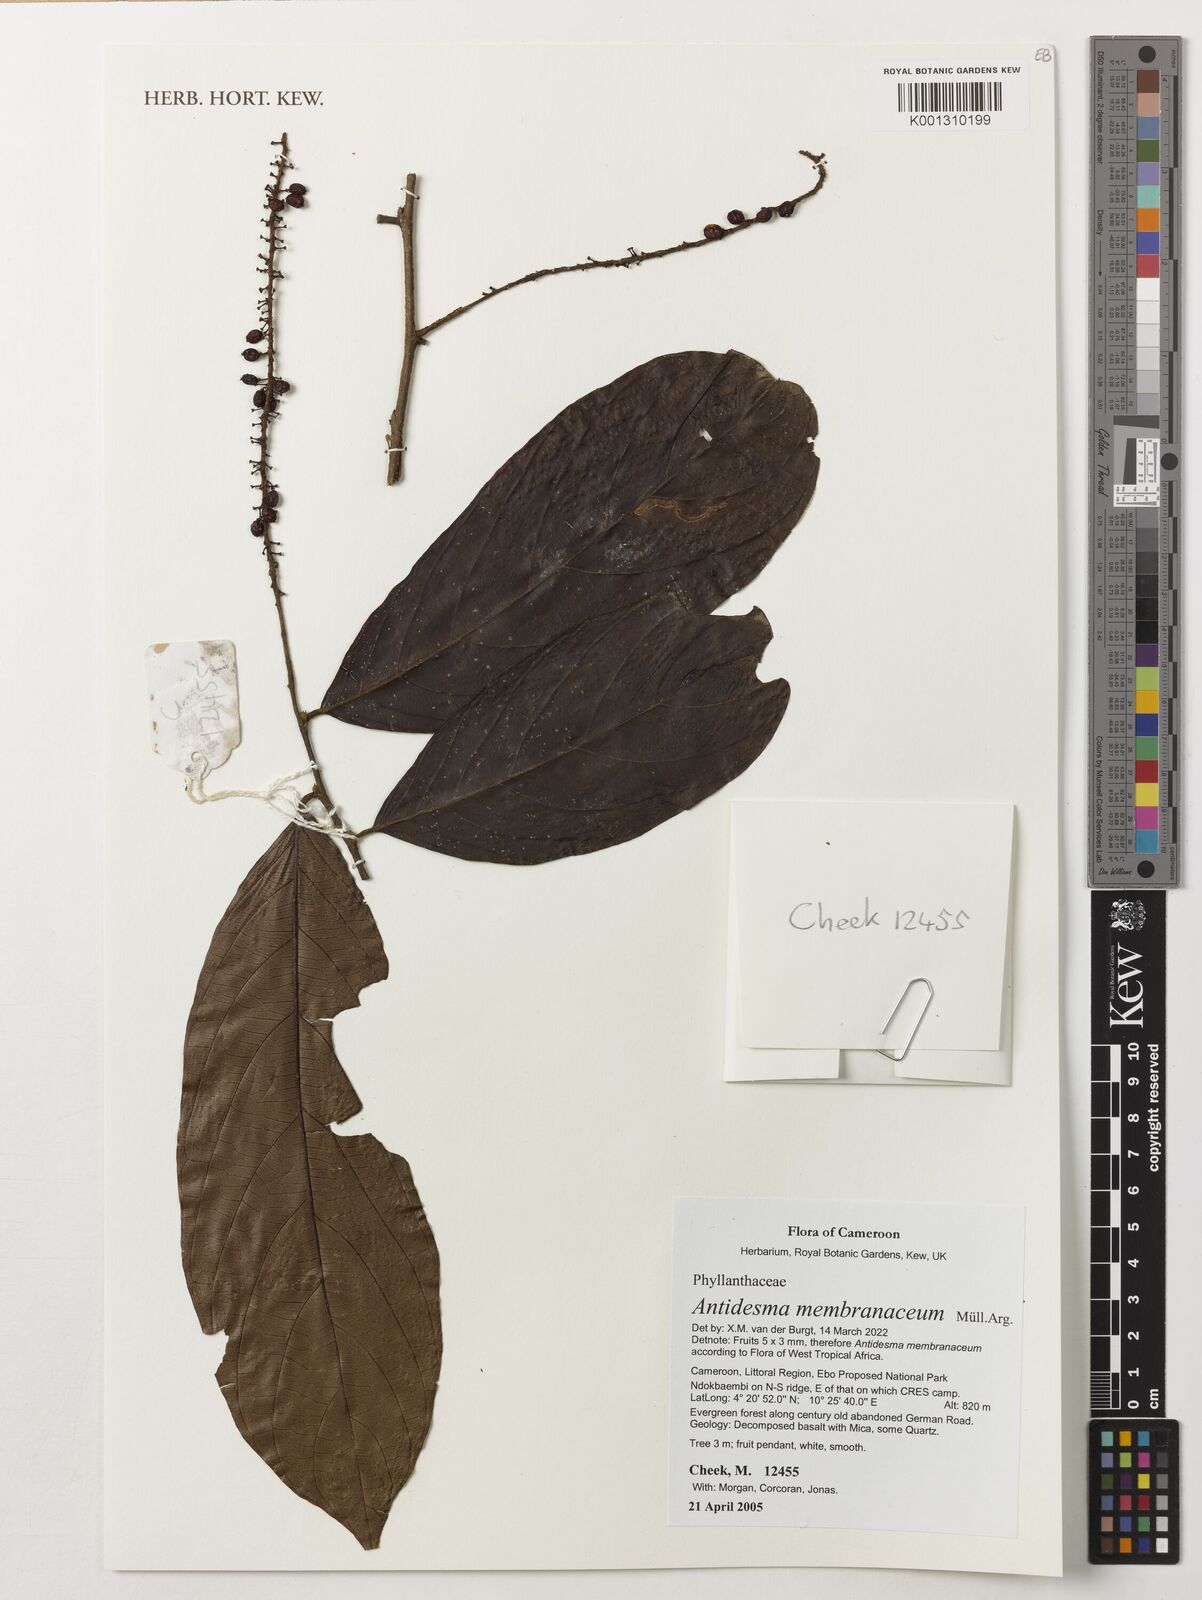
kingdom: Plantae
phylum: Tracheophyta
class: Magnoliopsida
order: Malpighiales
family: Phyllanthaceae
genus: Antidesma
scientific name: Antidesma membranaceum
